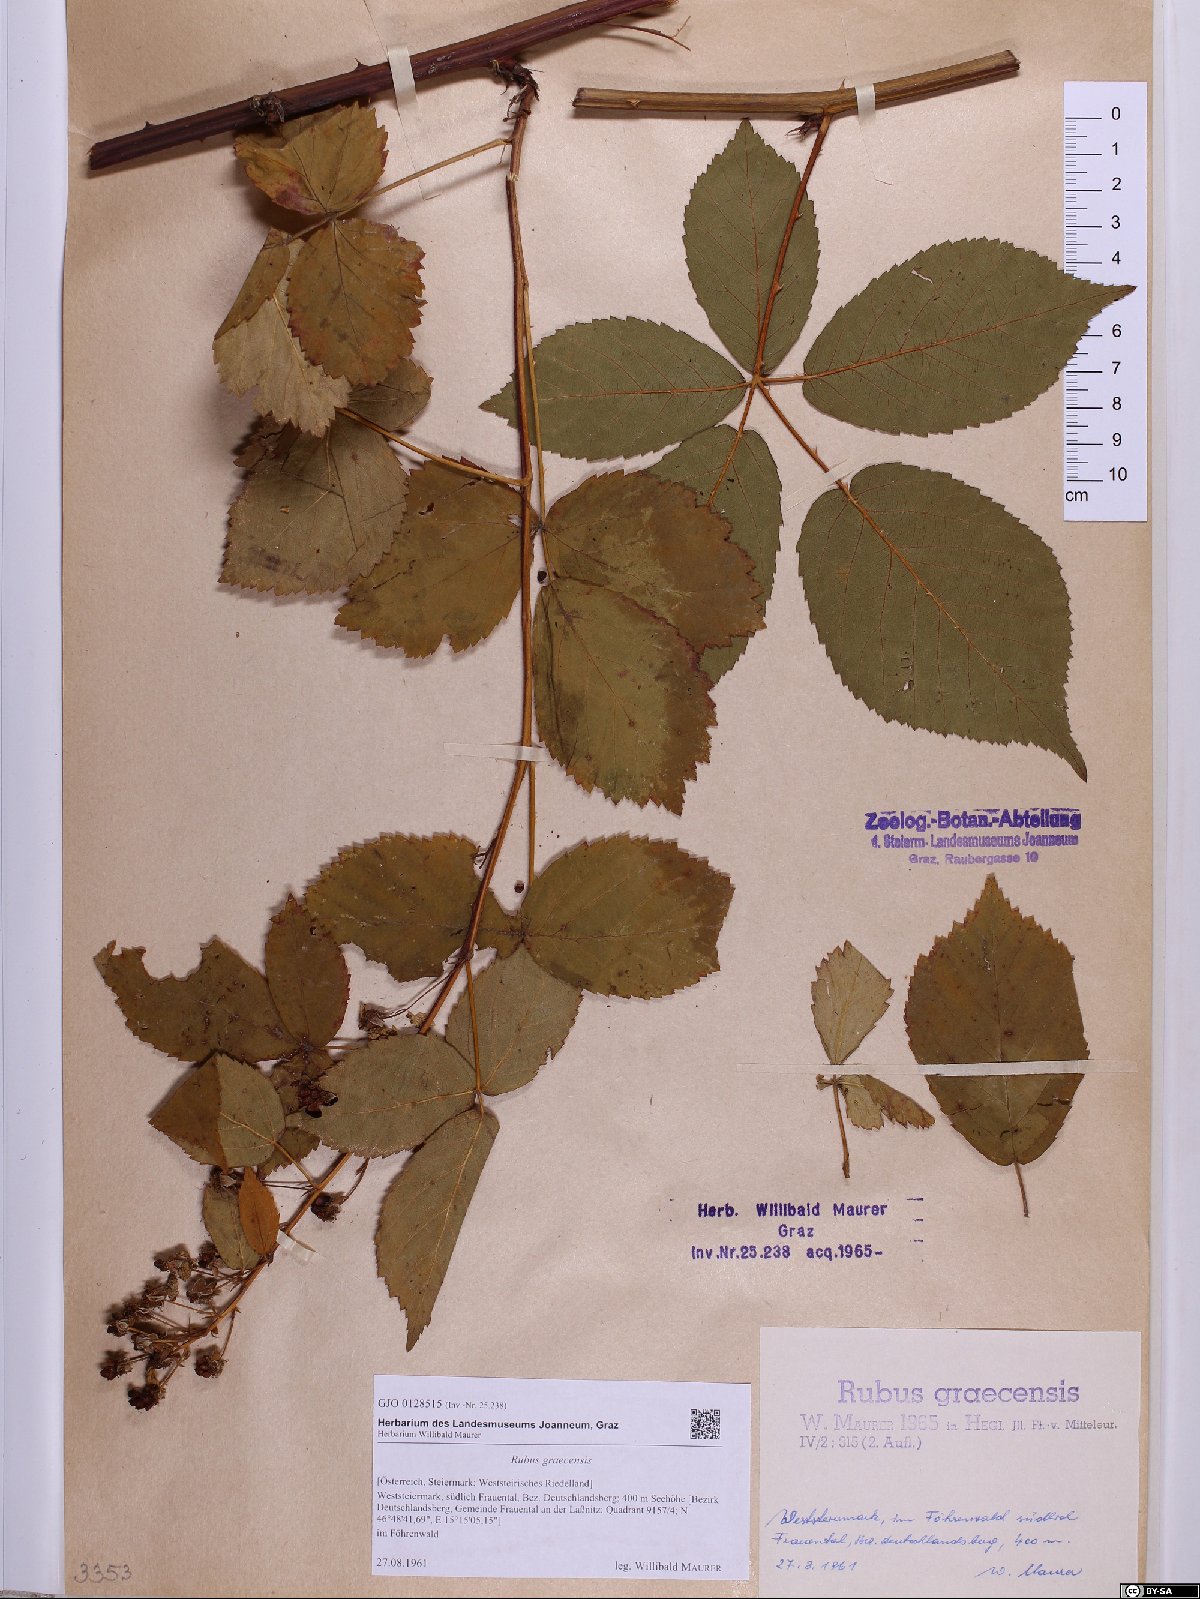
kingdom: Plantae
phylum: Tracheophyta
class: Magnoliopsida
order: Rosales
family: Rosaceae
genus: Rubus
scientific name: Rubus graecensis
